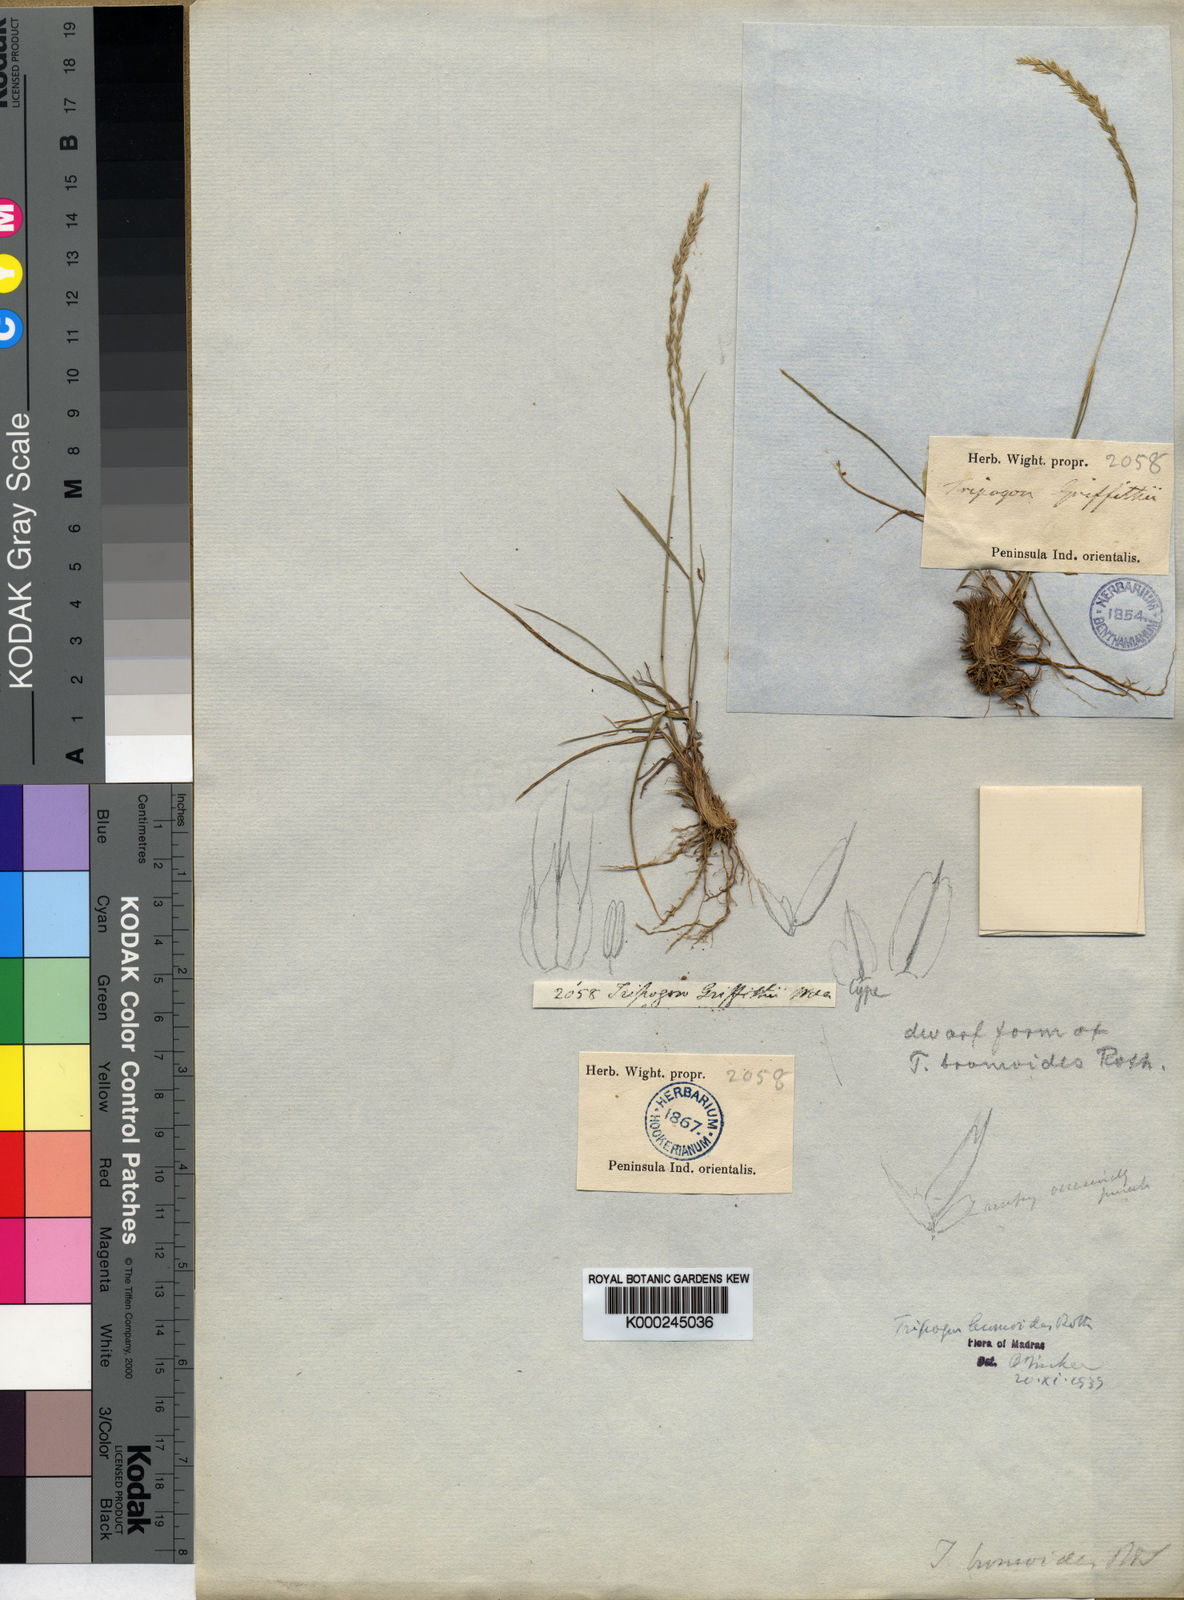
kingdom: Plantae
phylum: Tracheophyta
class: Liliopsida
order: Poales
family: Poaceae
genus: Tripogon
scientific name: Tripogon
